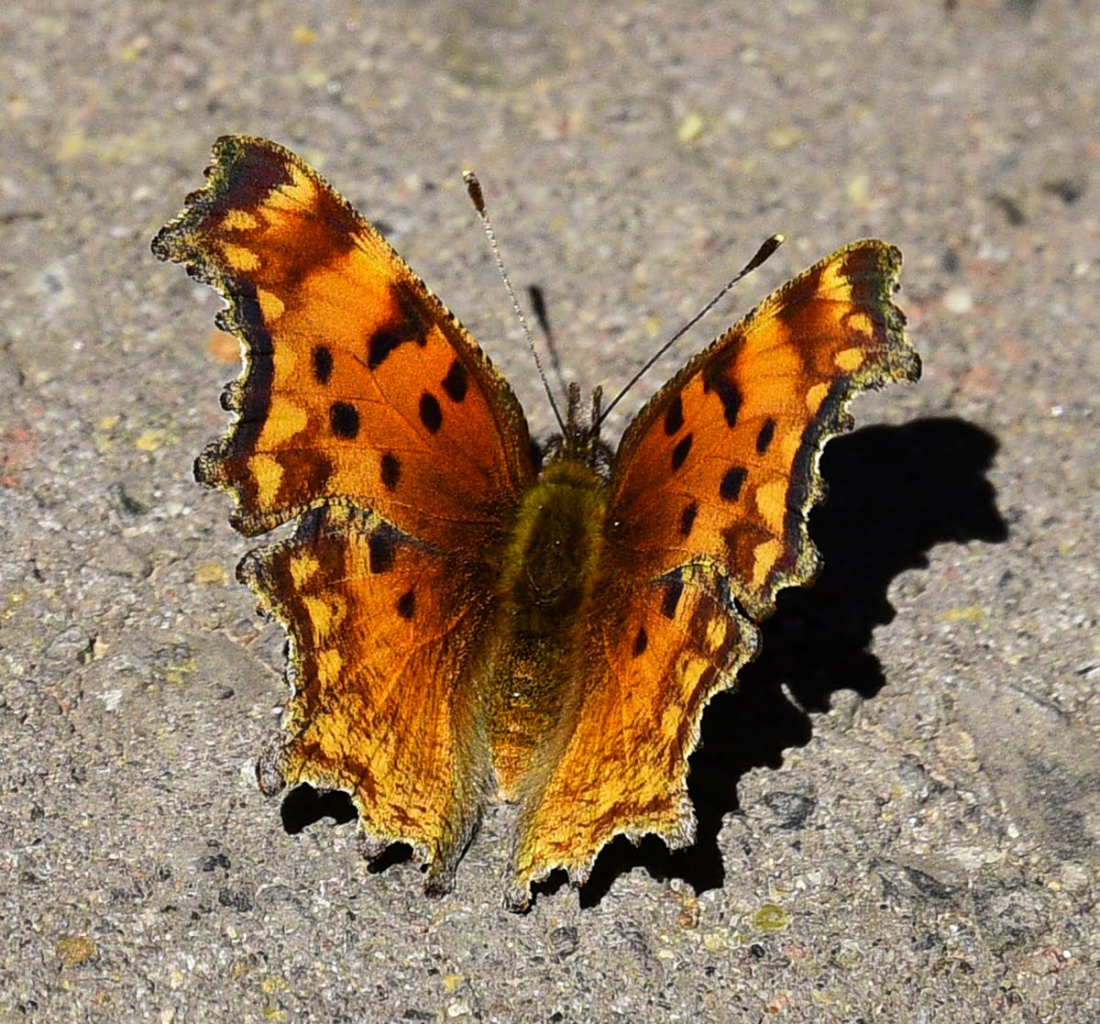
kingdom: Animalia
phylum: Arthropoda
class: Insecta
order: Lepidoptera
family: Nymphalidae
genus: Polygonia
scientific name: Polygonia gracilis
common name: Hoary Comma
